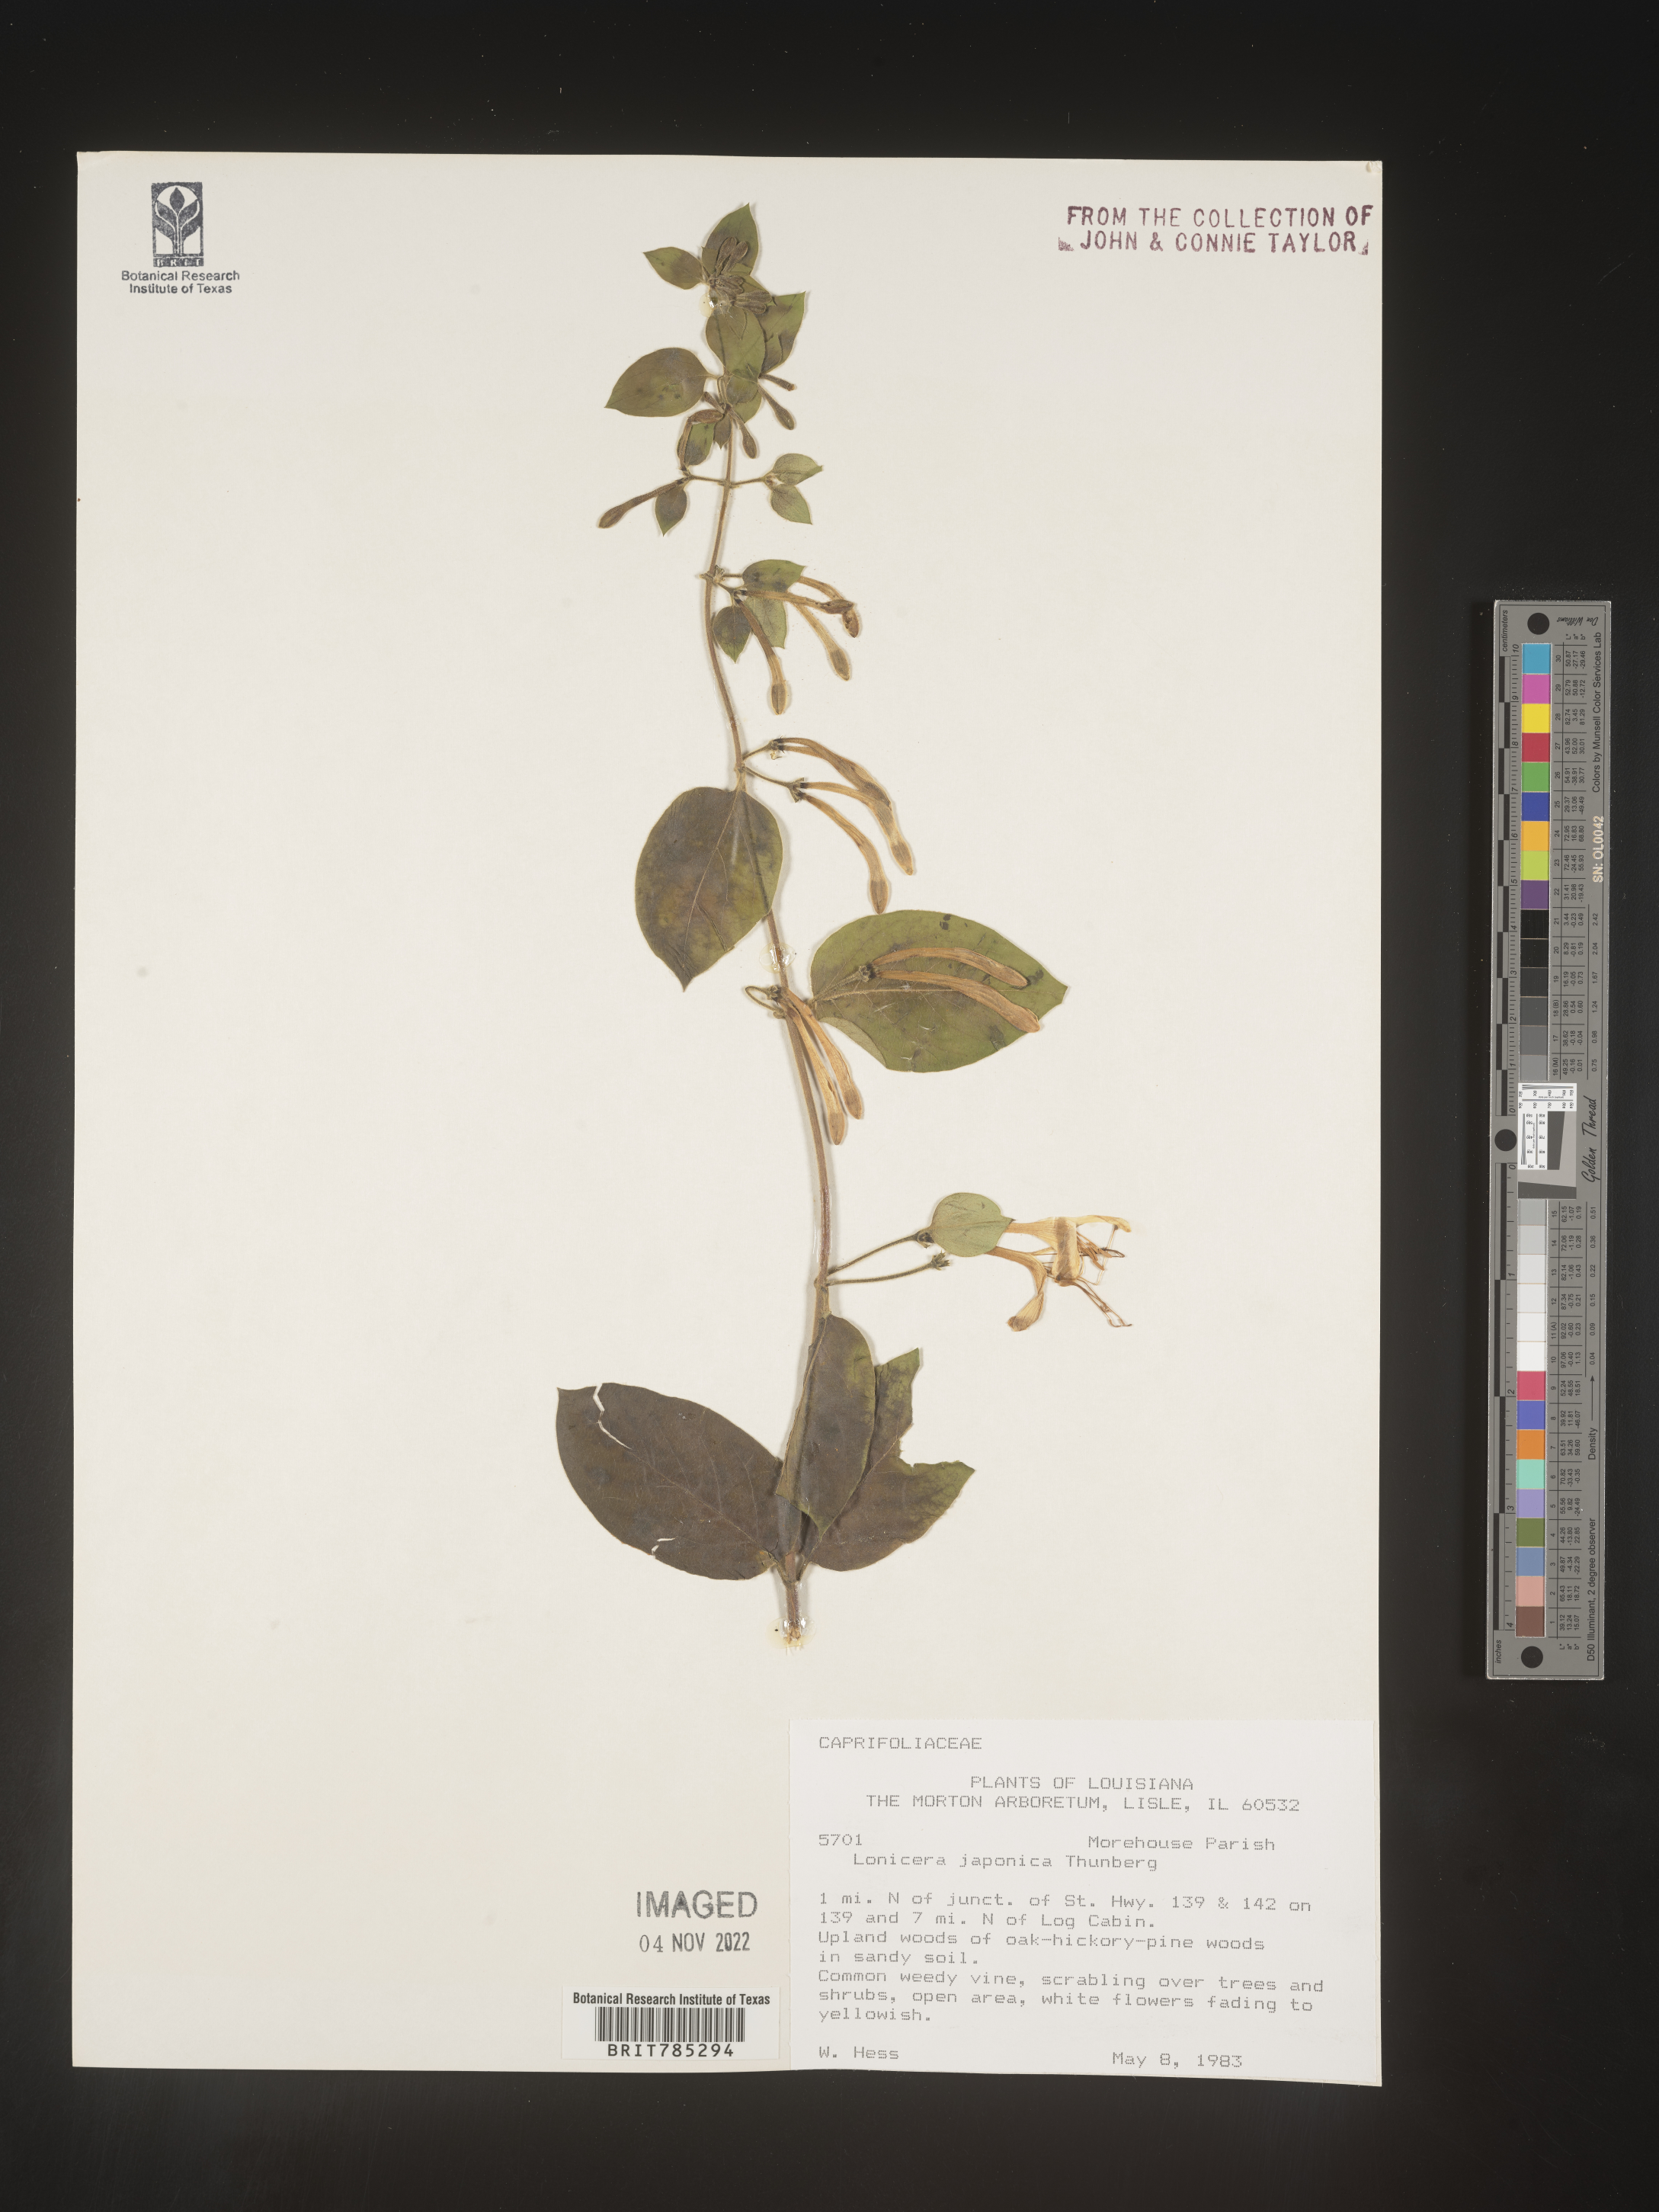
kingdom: Plantae
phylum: Tracheophyta
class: Magnoliopsida
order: Dipsacales
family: Caprifoliaceae
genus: Lonicera
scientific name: Lonicera japonica
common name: Japanese honeysuckle
